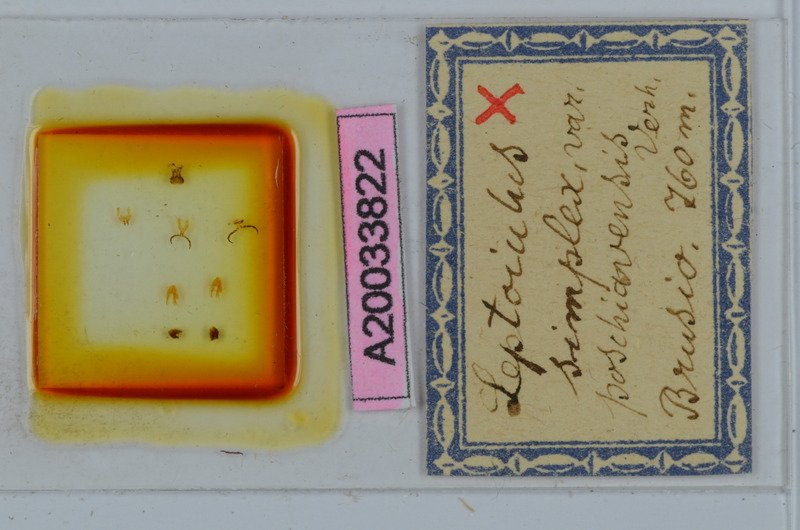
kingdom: Animalia
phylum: Arthropoda
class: Diplopoda
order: Julida
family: Julidae
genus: Leptoiulus
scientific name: Leptoiulus simplex
